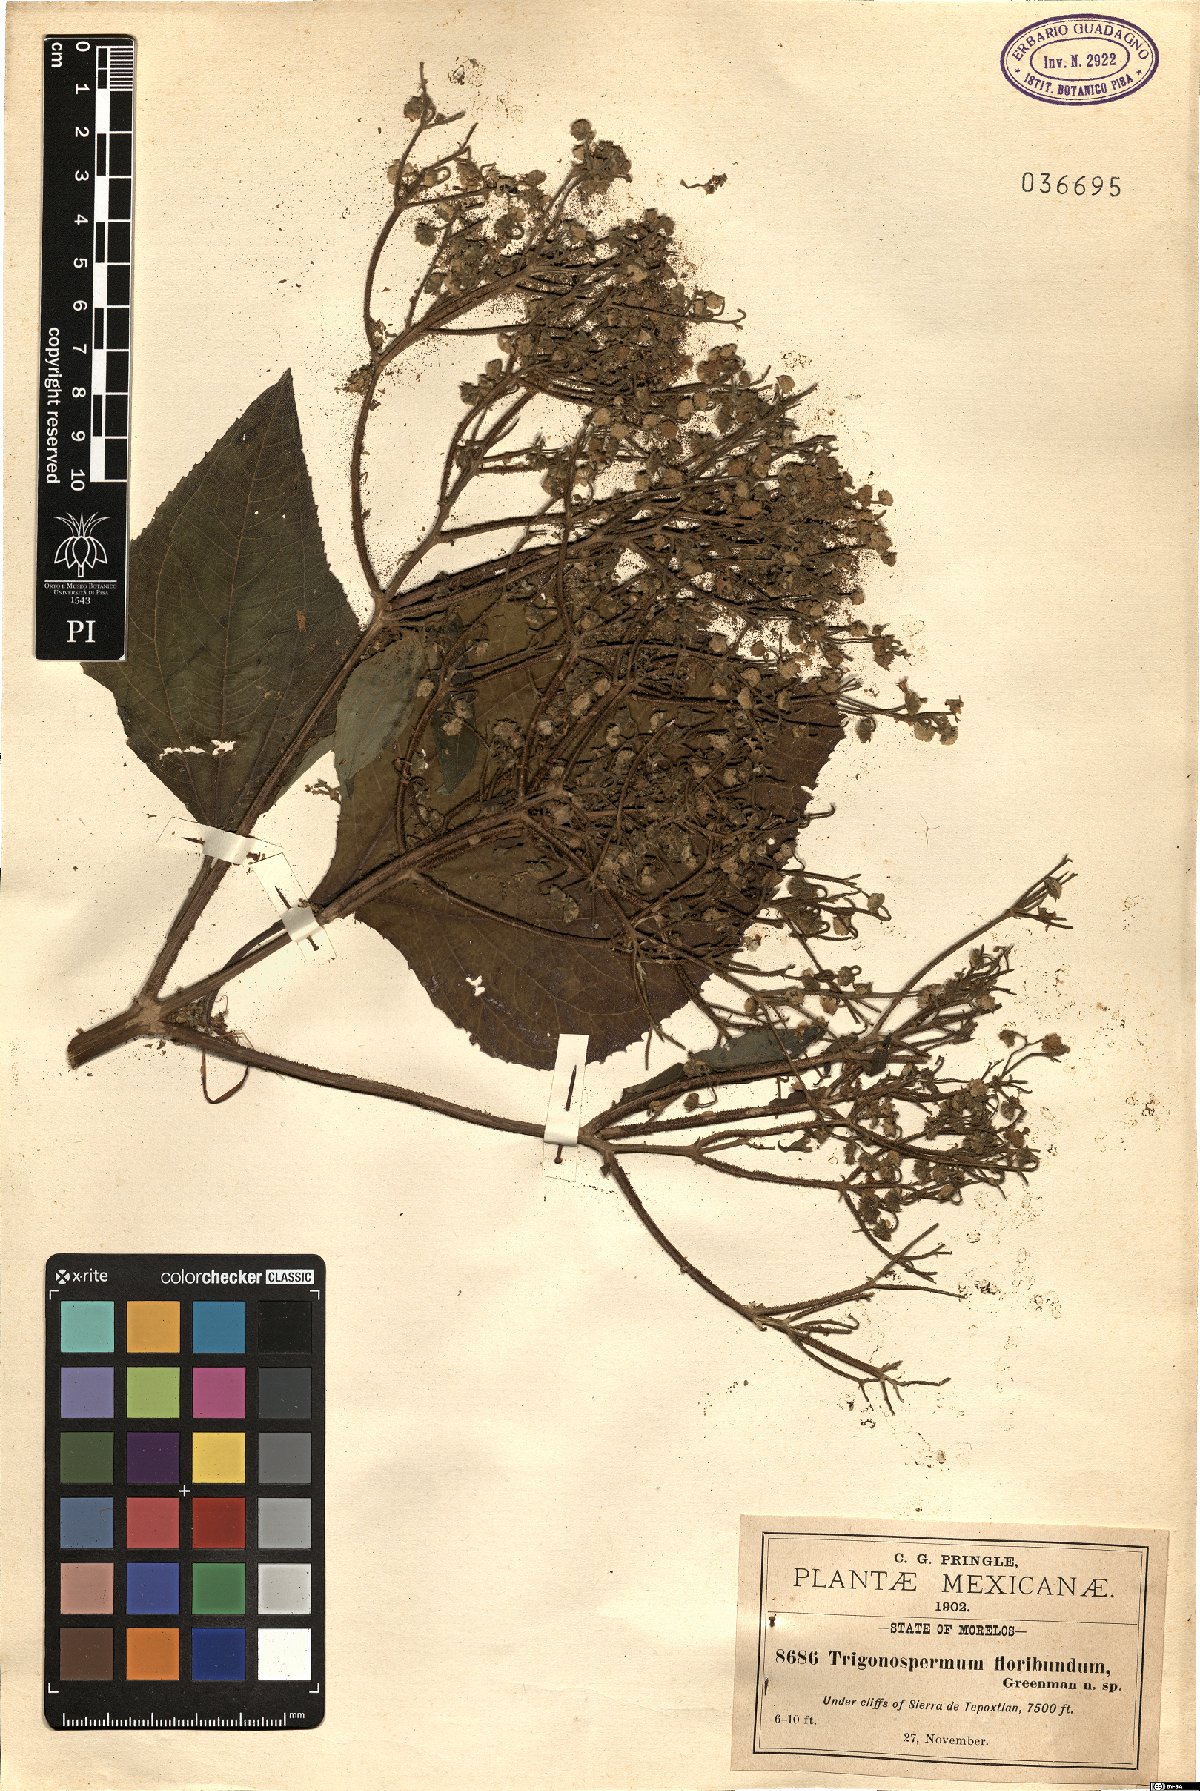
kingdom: Plantae
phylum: Tracheophyta
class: Magnoliopsida
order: Asterales
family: Asteraceae
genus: Trigonospermum
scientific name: Trigonospermum melampodioides
